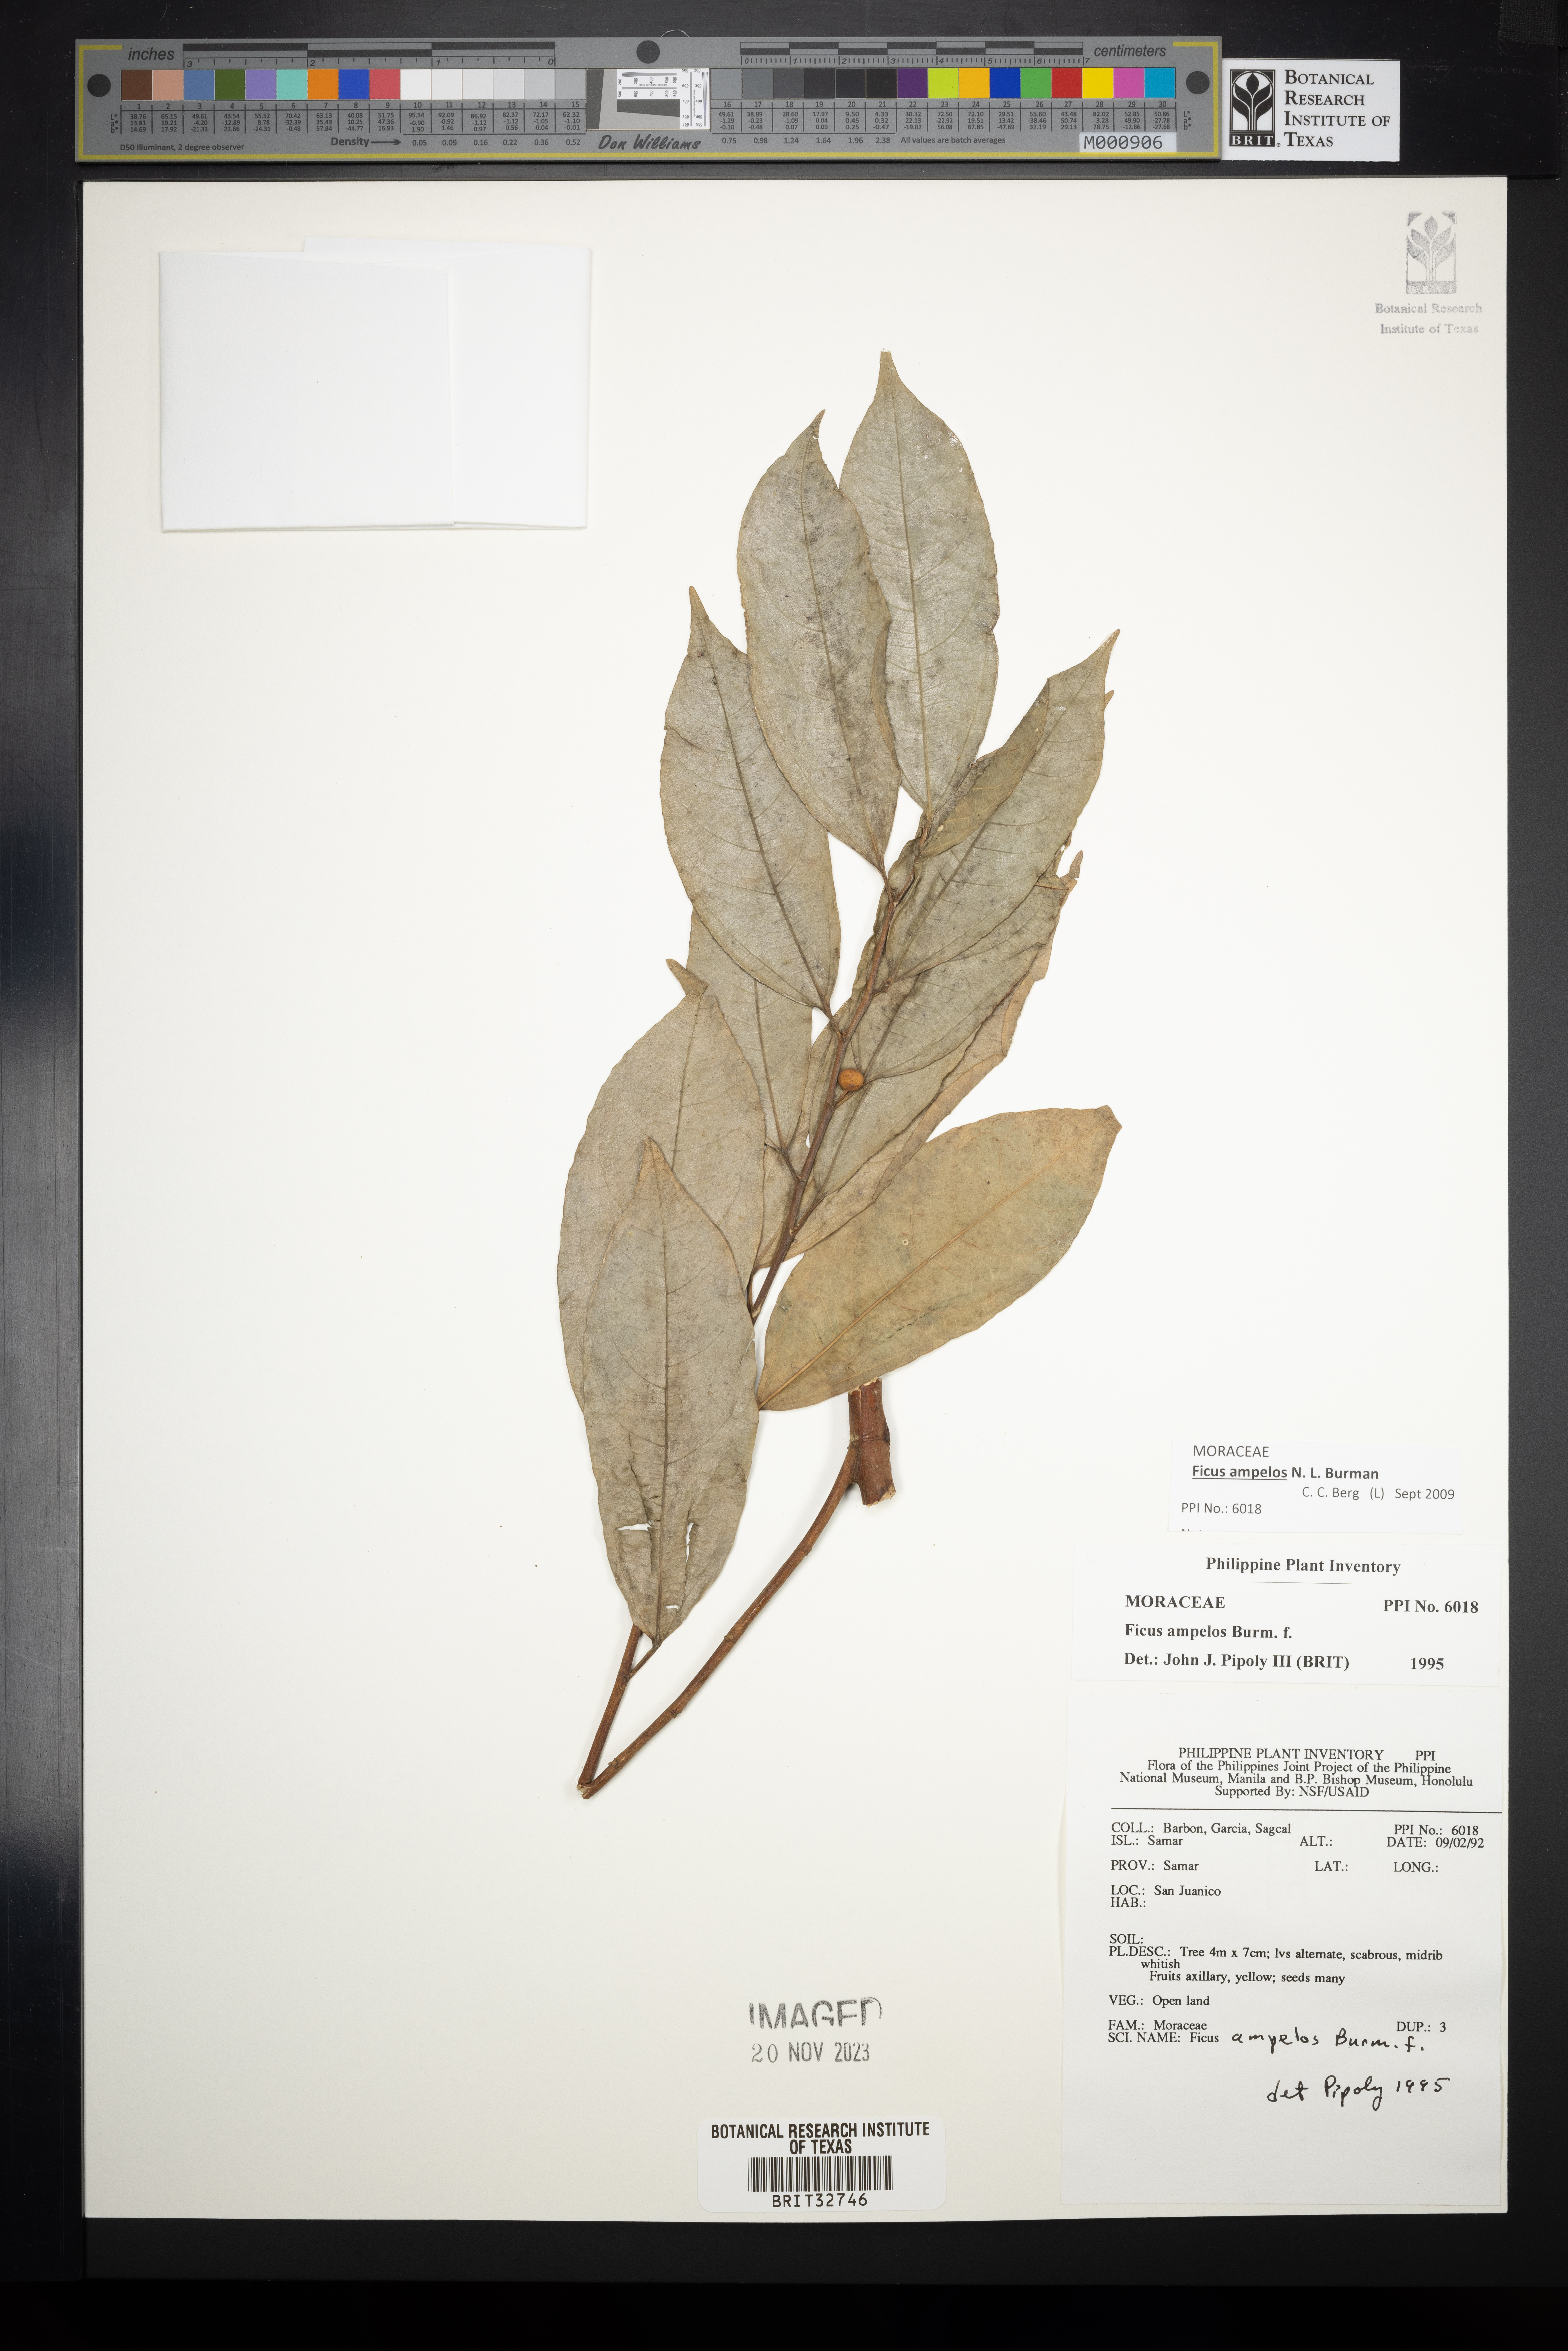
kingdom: Plantae
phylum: Tracheophyta
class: Magnoliopsida
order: Rosales
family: Moraceae
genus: Ficus
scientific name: Ficus ampelos
